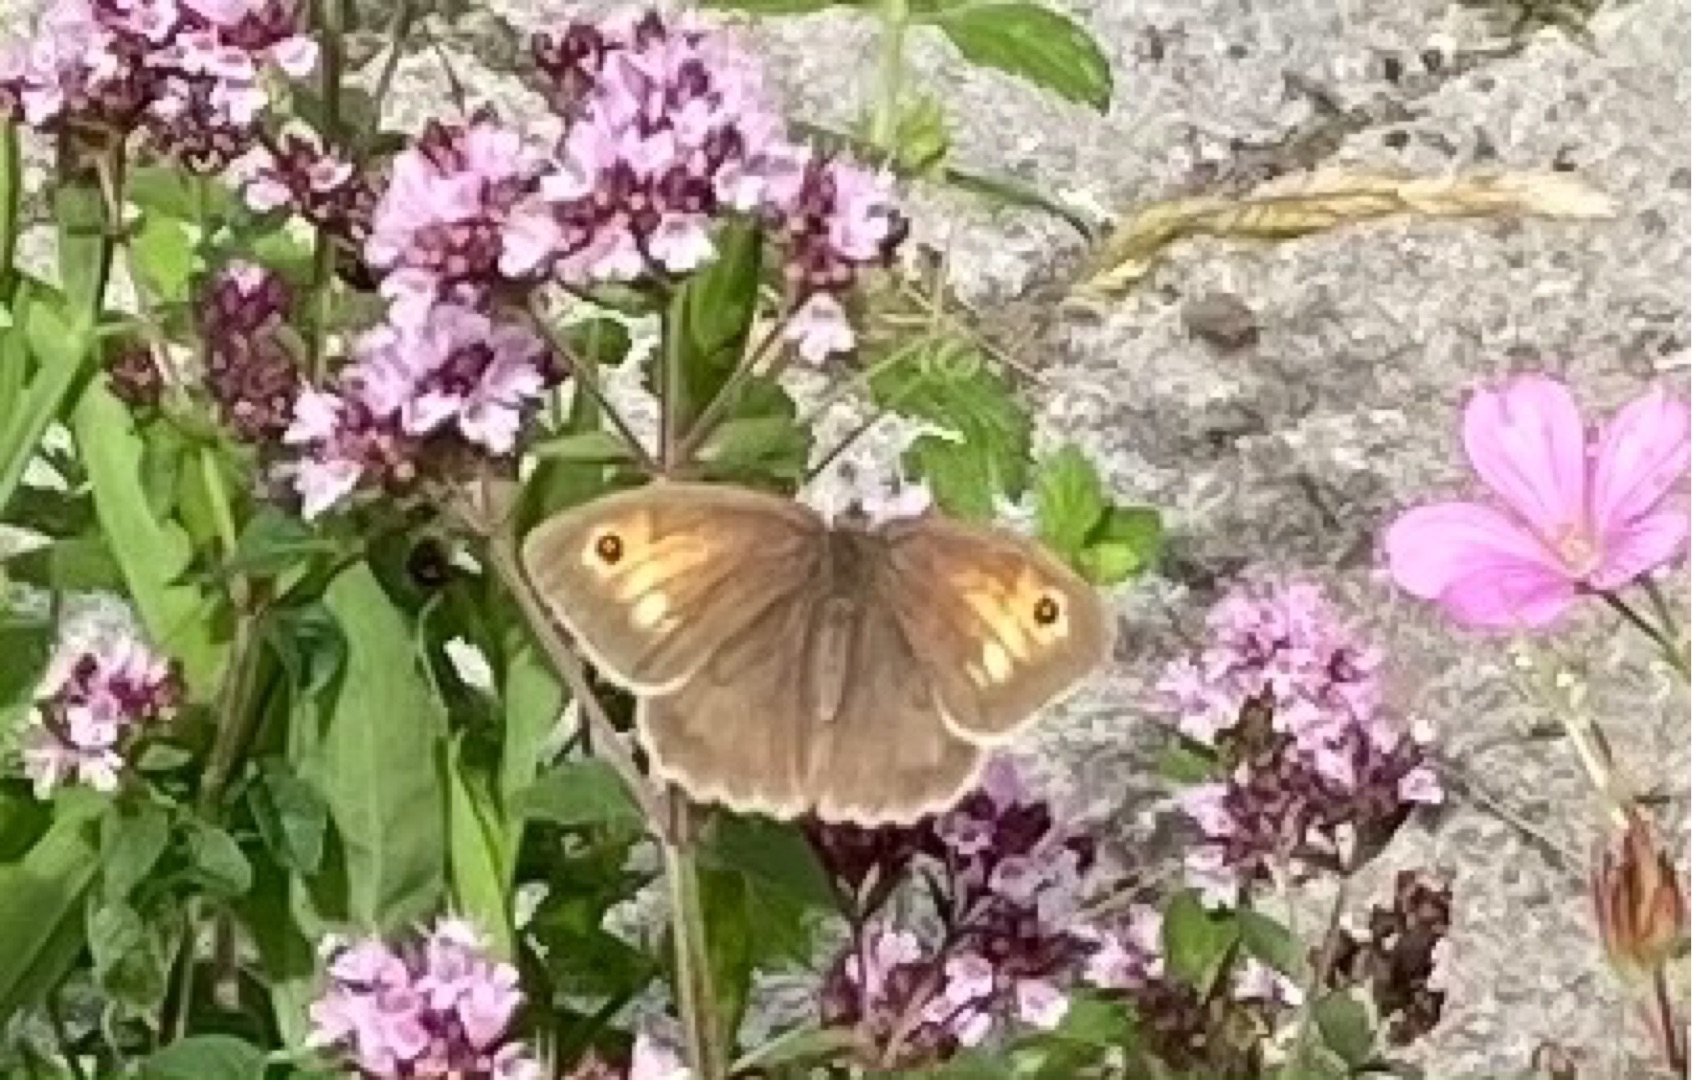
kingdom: Animalia
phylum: Arthropoda
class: Insecta
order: Lepidoptera
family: Nymphalidae
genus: Maniola
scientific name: Maniola jurtina
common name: Græsrandøje
